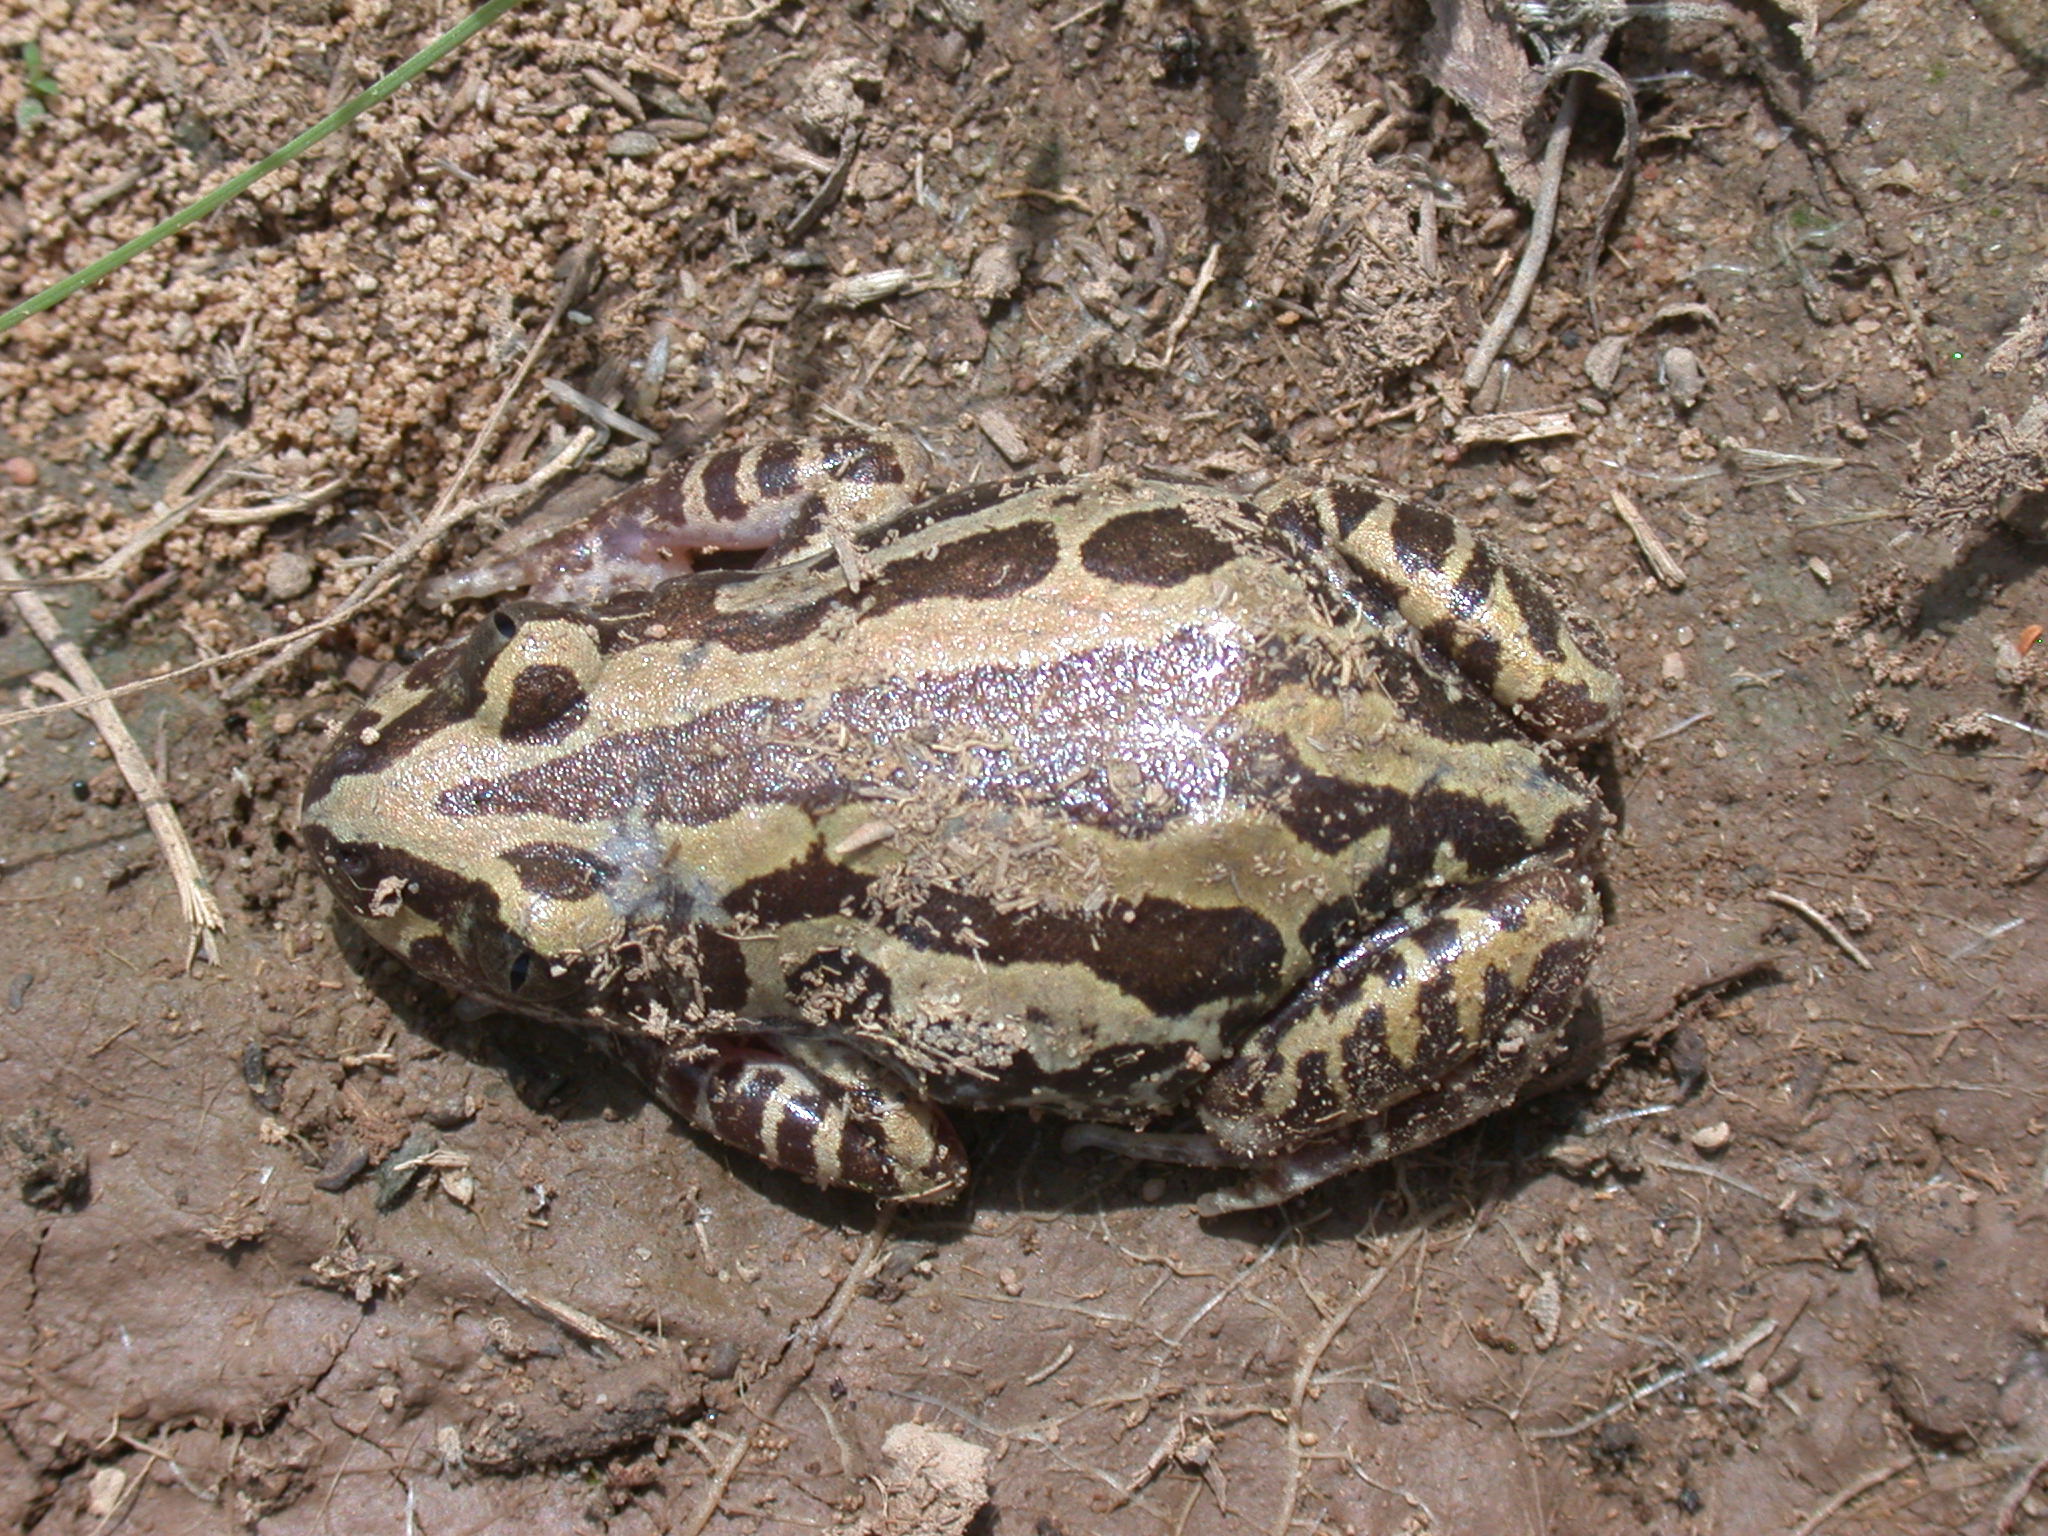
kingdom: Animalia
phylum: Chordata
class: Amphibia
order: Anura
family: Hyperoliidae
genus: Kassina
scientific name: Kassina senegalensis
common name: Senegal land frog
